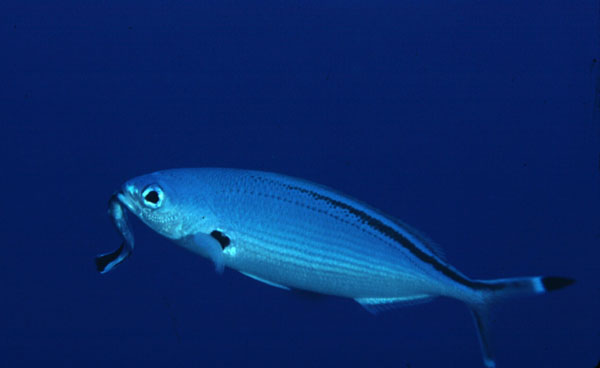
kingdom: Animalia
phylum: Chordata
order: Perciformes
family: Caesionidae
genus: Caesio
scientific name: Caesio suevica
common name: Suez fusilier
